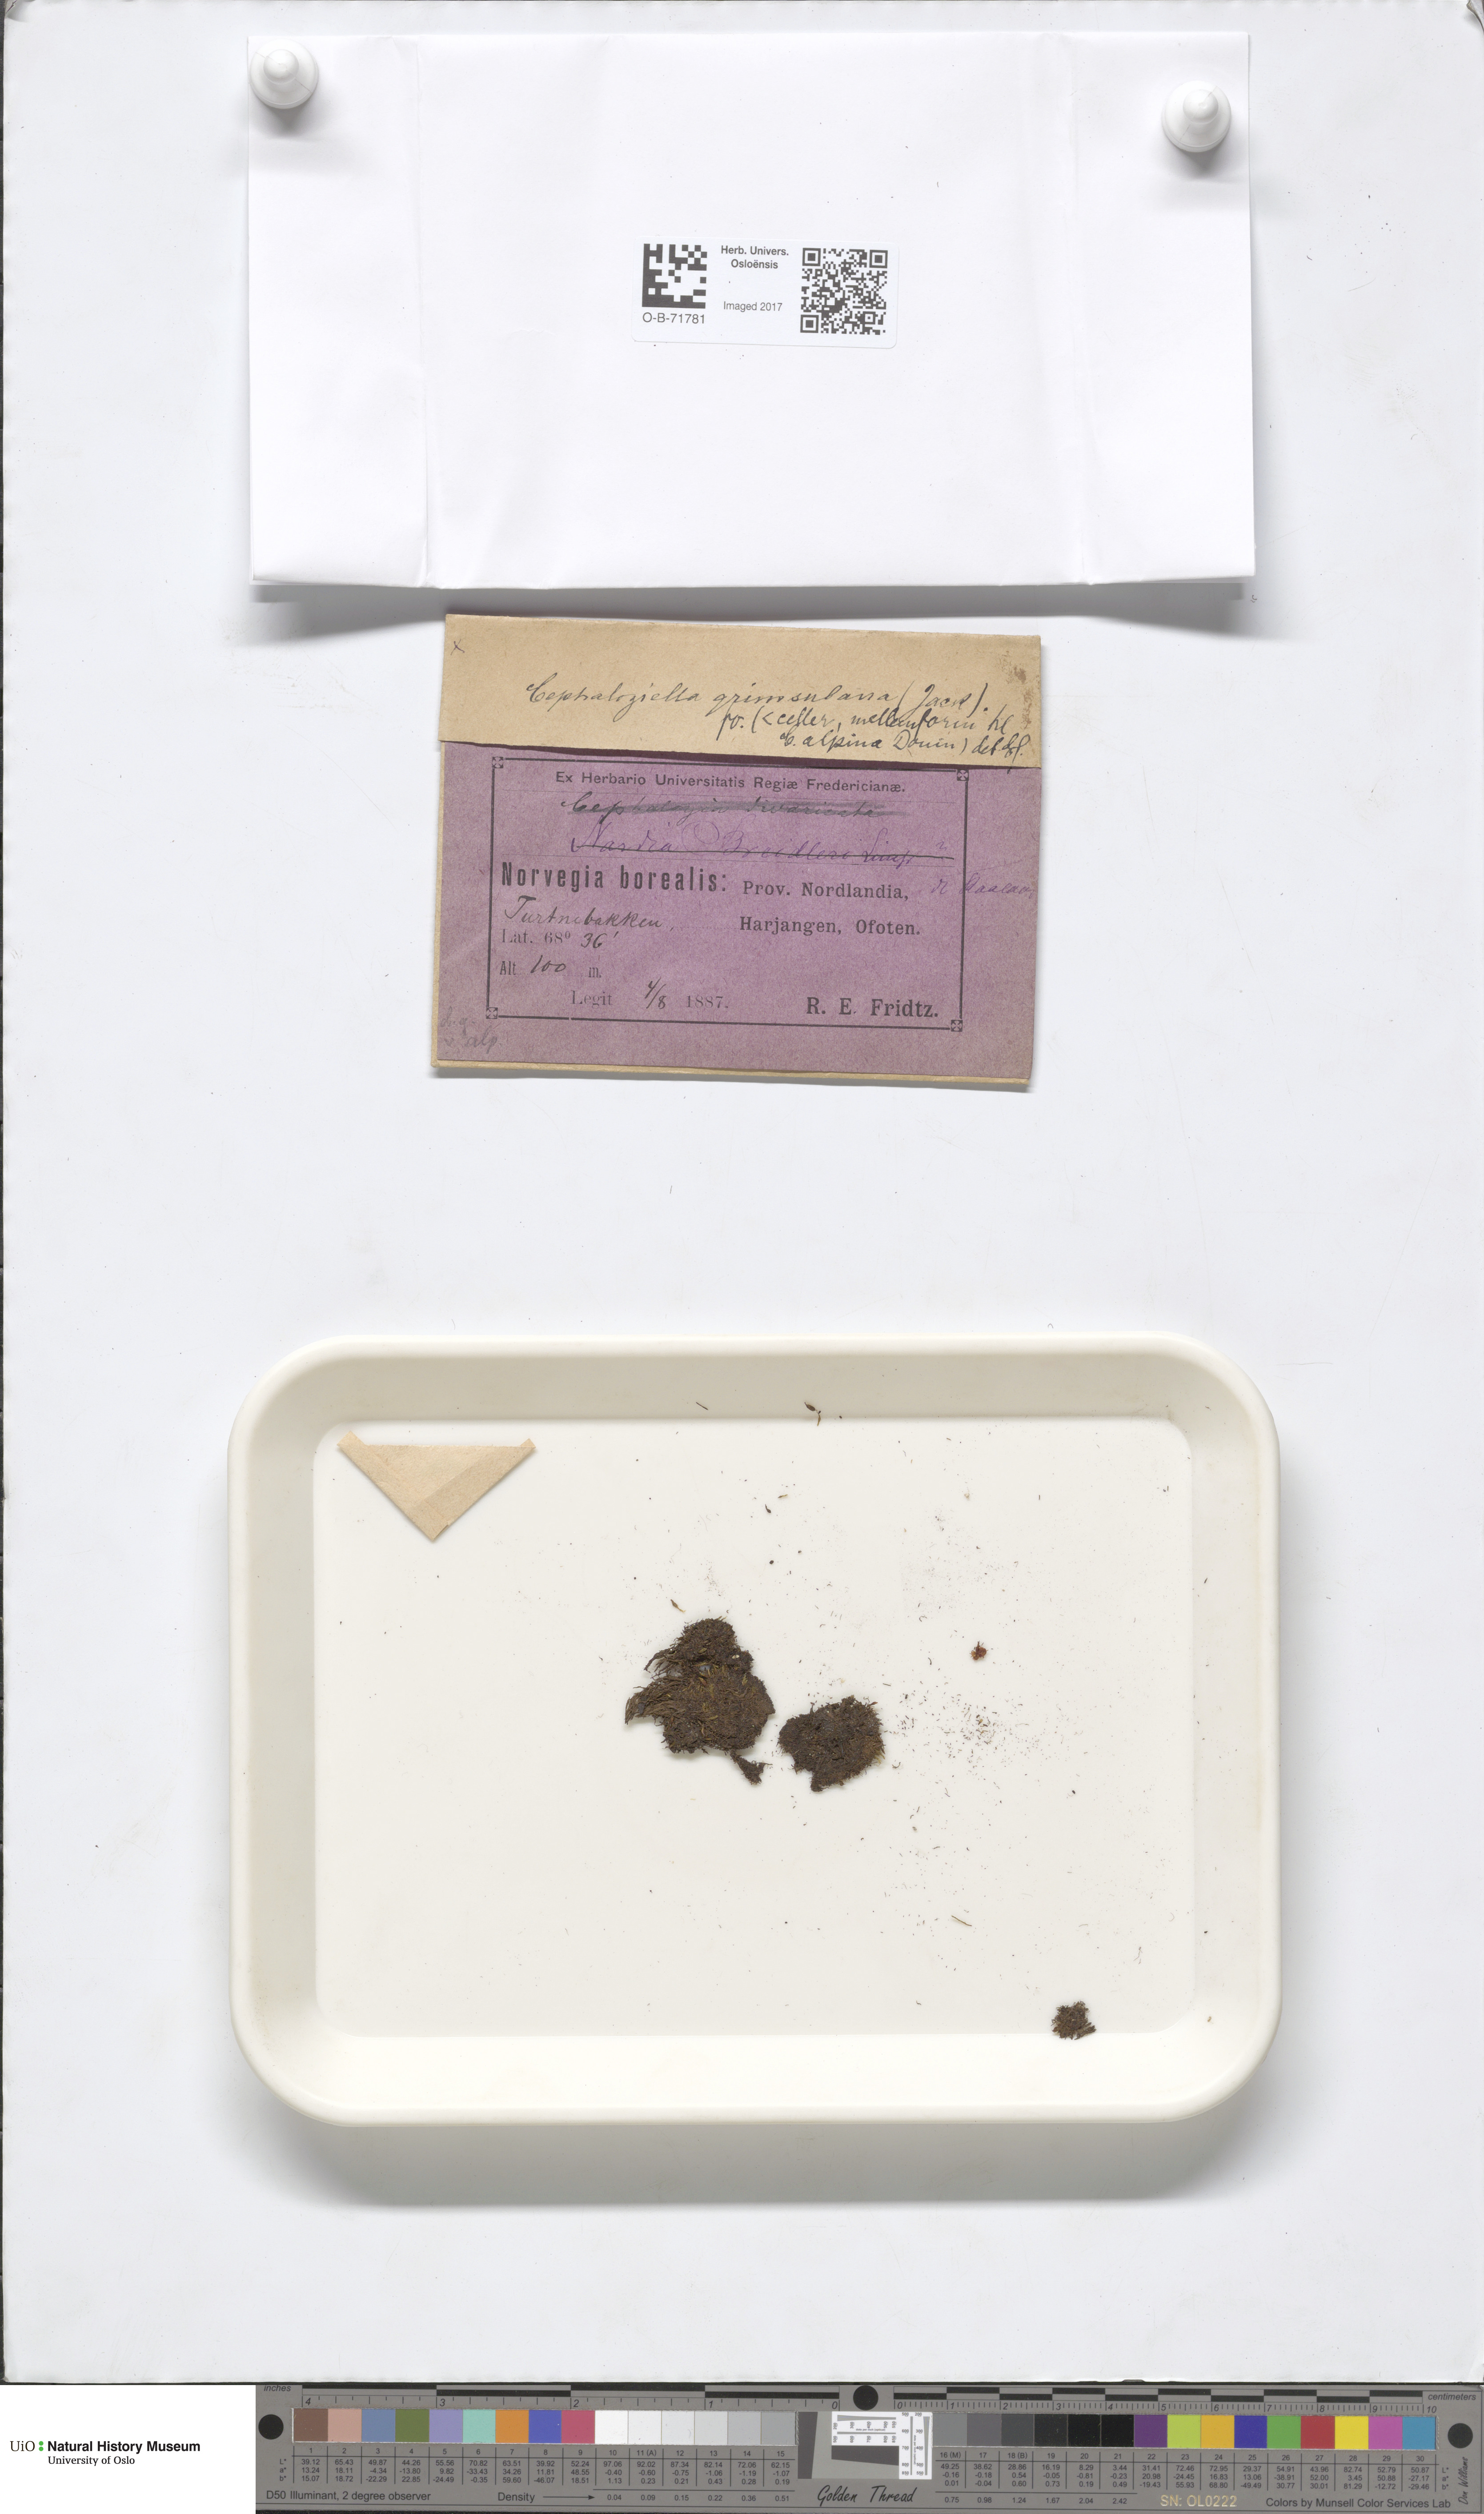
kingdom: Plantae
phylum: Marchantiophyta
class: Jungermanniopsida
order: Jungermanniales
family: Cephaloziellaceae
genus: Cephaloziella
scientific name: Cephaloziella varians
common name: Arctic threadwort
